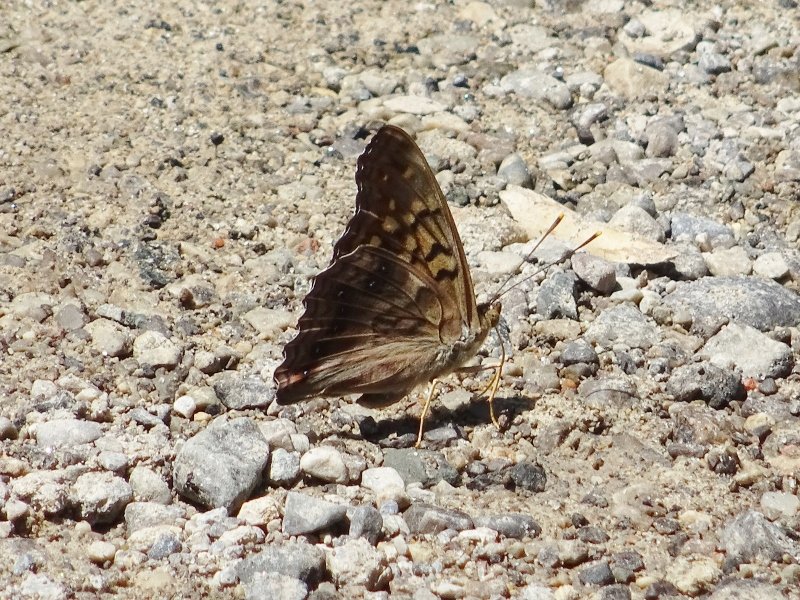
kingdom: Animalia
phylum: Arthropoda
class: Insecta
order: Lepidoptera
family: Nymphalidae
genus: Asterocampa
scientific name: Asterocampa clyton
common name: Tawny Emperor
